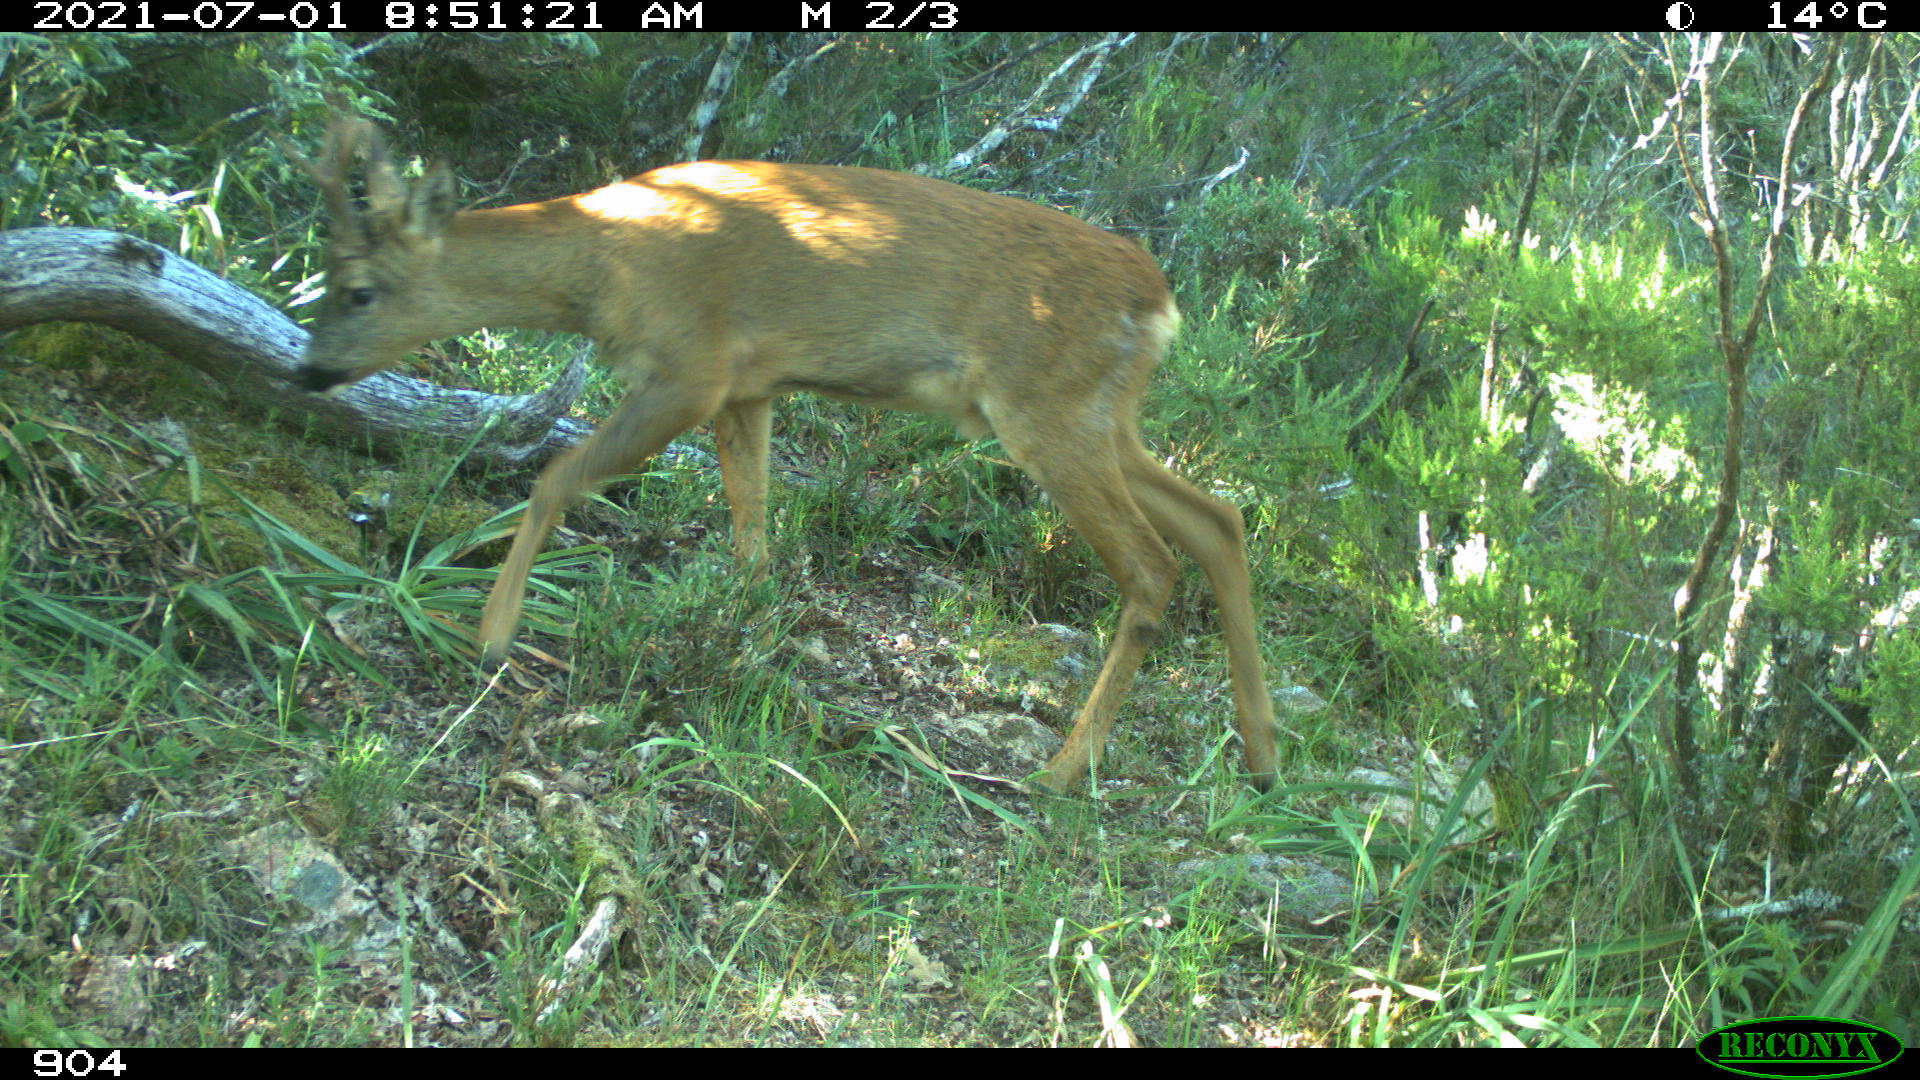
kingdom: Animalia
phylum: Chordata
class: Mammalia
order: Artiodactyla
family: Cervidae
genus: Capreolus
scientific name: Capreolus capreolus
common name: Western roe deer
